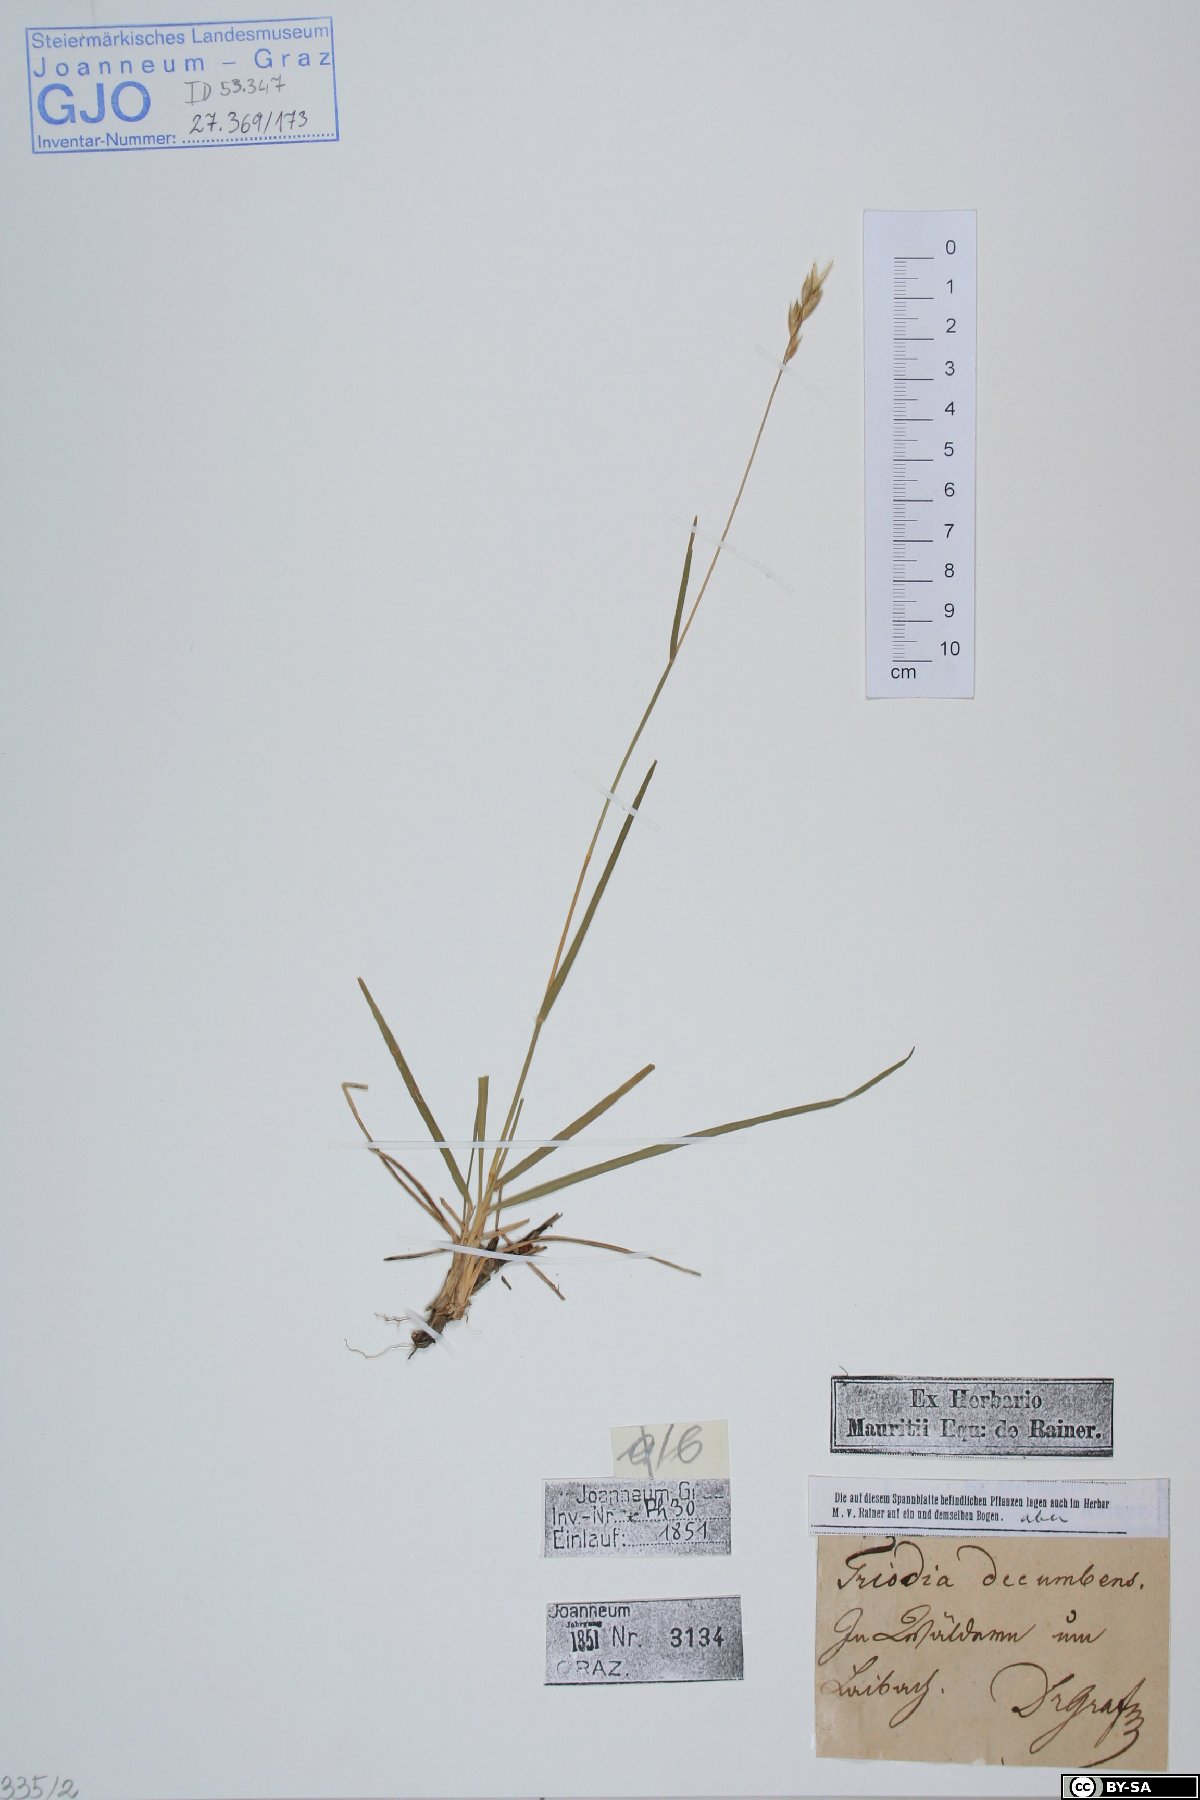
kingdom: Plantae
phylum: Tracheophyta
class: Liliopsida
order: Poales
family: Poaceae
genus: Danthonia
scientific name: Danthonia decumbens
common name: Common heathgrass
